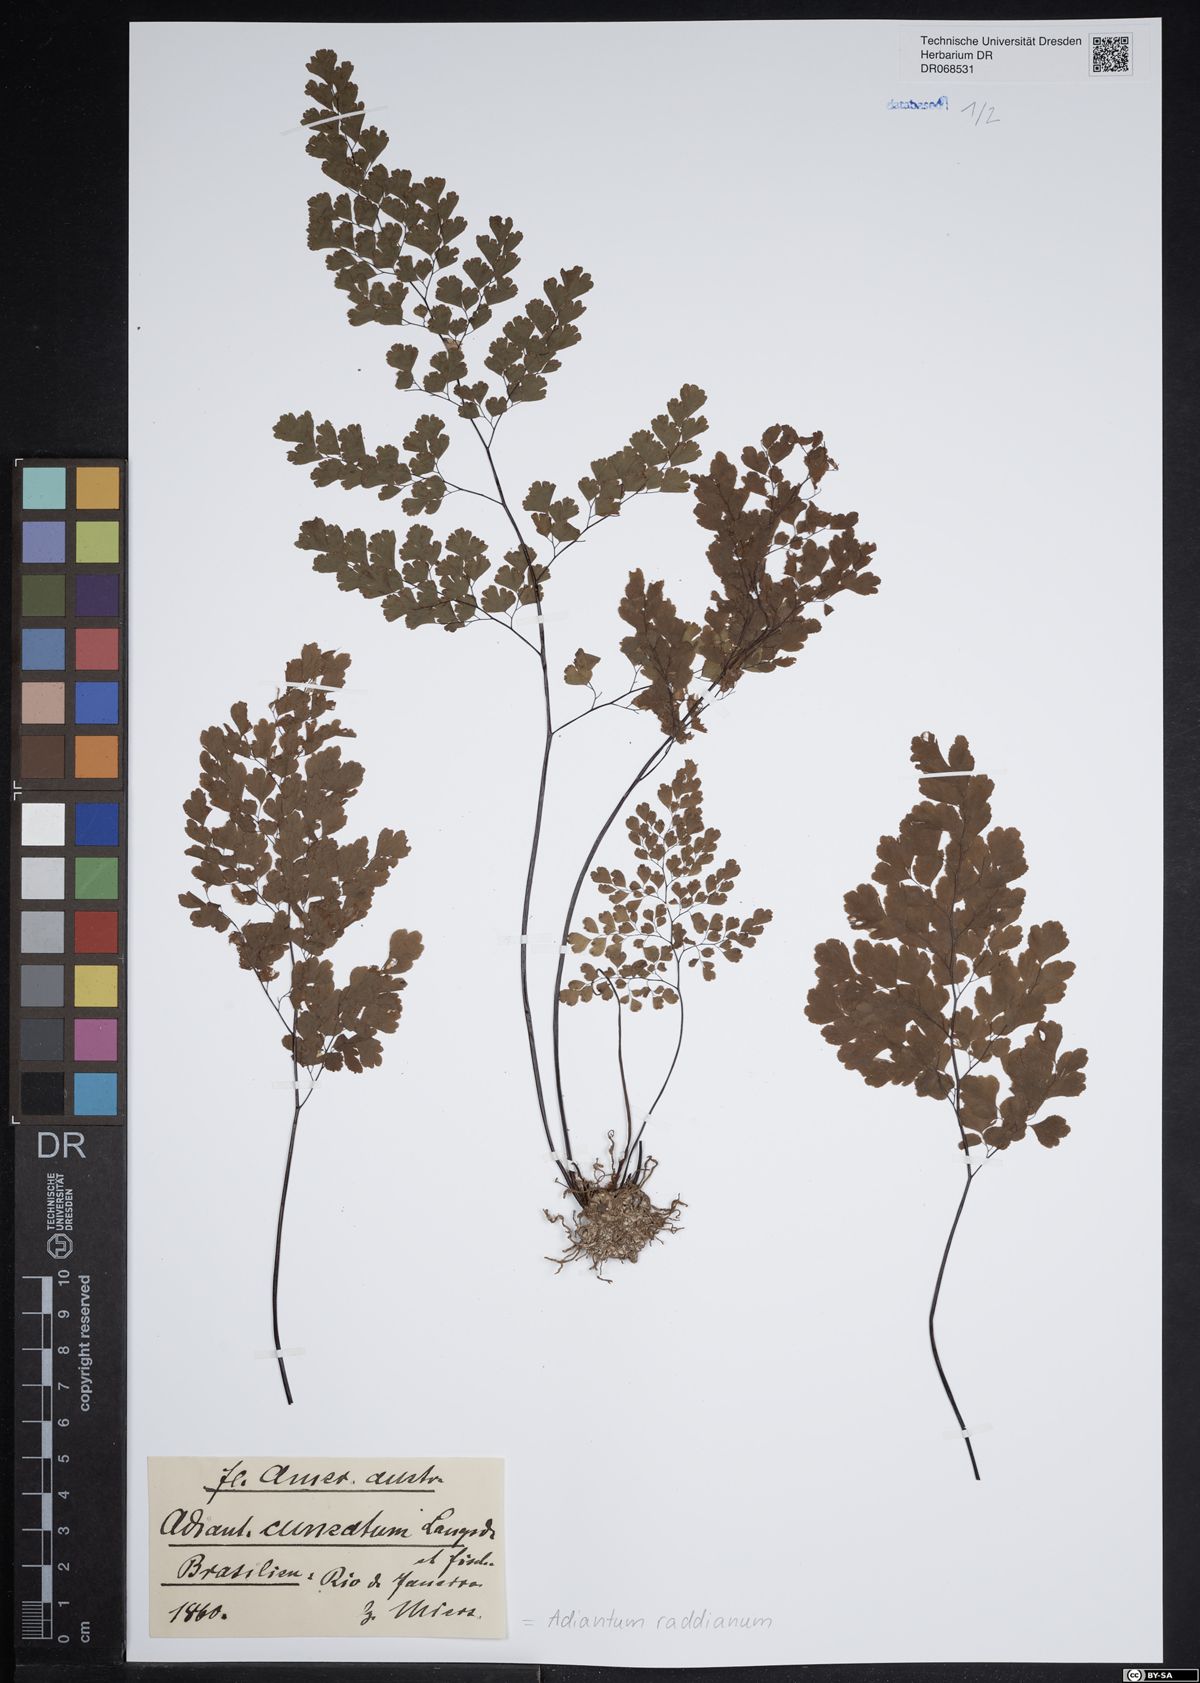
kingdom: Plantae
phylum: Tracheophyta
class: Polypodiopsida
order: Polypodiales
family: Pteridaceae
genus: Adiantum
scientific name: Adiantum raddianum
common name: Delta maidenhair fern
